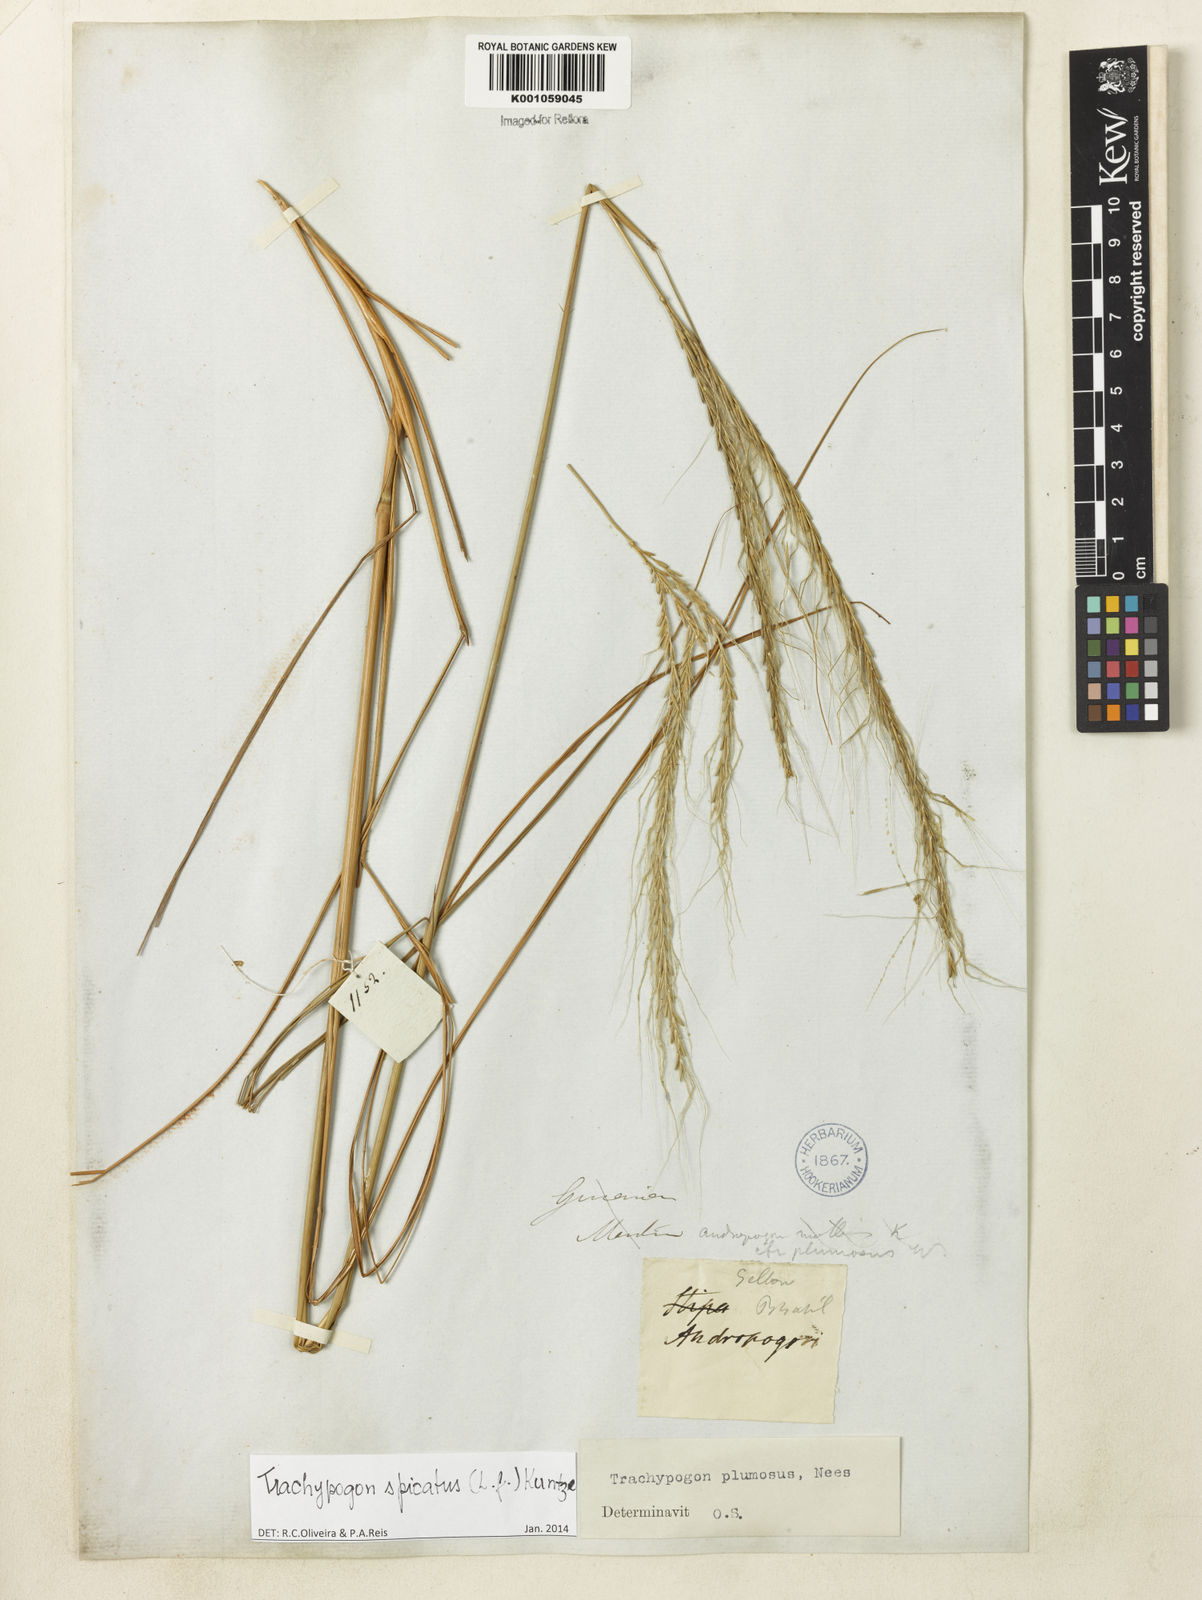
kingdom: Plantae
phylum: Tracheophyta
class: Liliopsida
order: Poales
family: Poaceae
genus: Trachypogon
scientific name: Trachypogon spicatus
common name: Crinkle-awn
